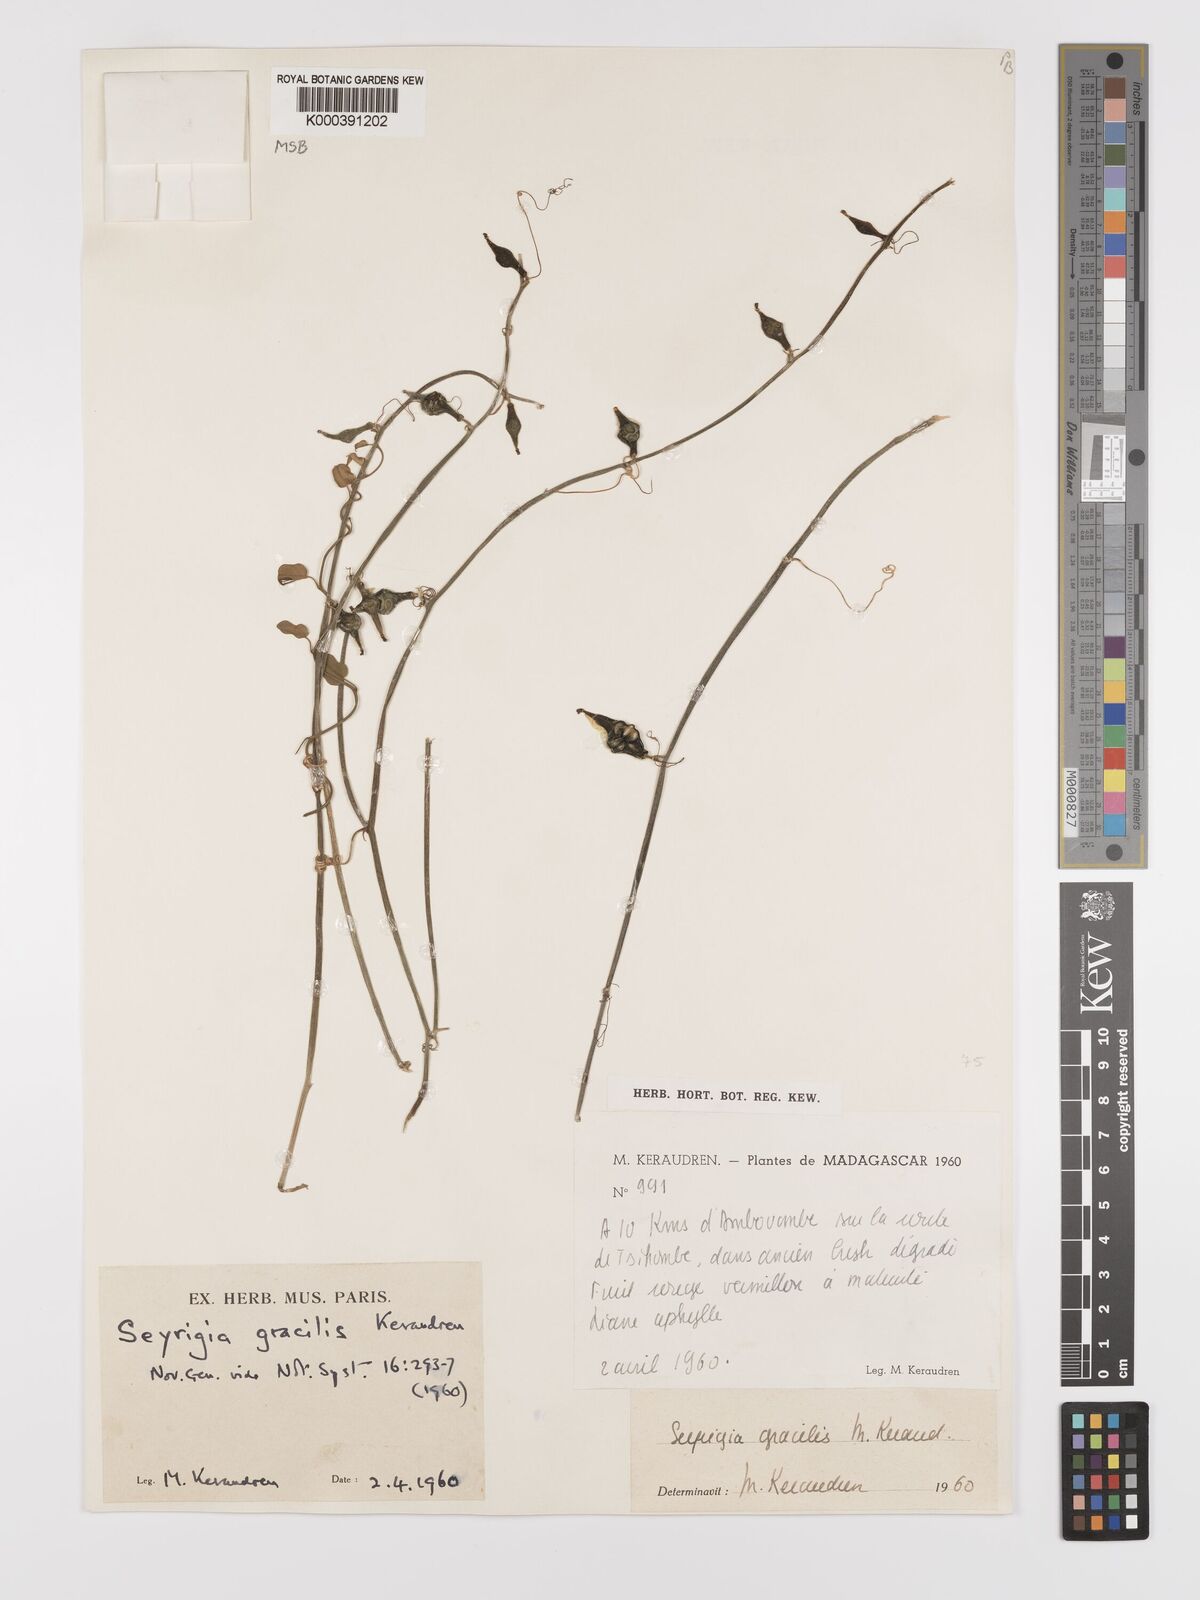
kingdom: Plantae
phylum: Tracheophyta
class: Magnoliopsida
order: Cucurbitales
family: Cucurbitaceae
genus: Seyrigia
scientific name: Seyrigia gracilis
